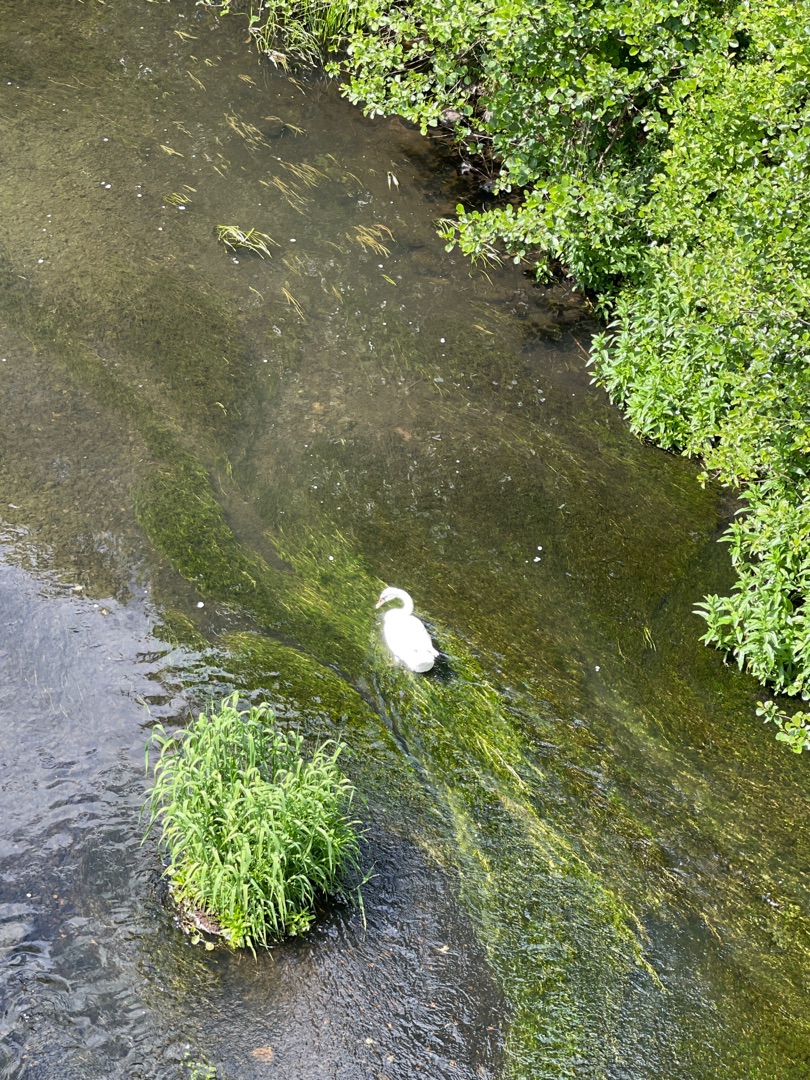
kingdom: Animalia
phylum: Chordata
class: Aves
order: Anseriformes
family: Anatidae
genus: Cygnus
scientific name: Cygnus olor
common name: Knopsvane
